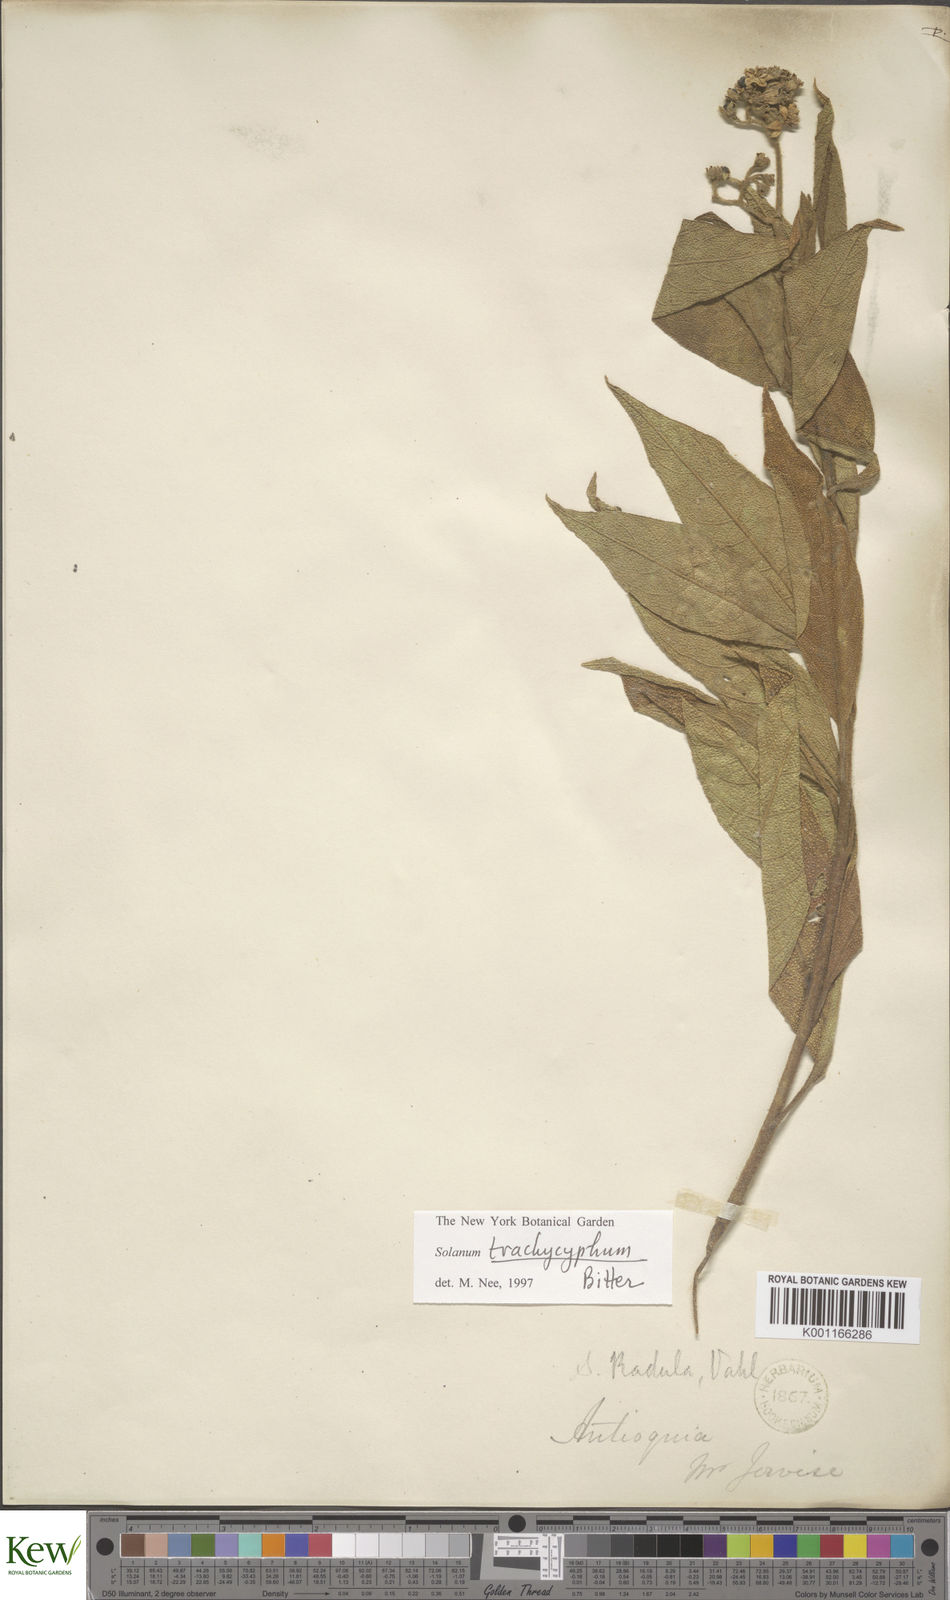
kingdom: Plantae
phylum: Tracheophyta
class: Magnoliopsida
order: Solanales
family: Solanaceae
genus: Solanum
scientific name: Solanum trachycyphum
